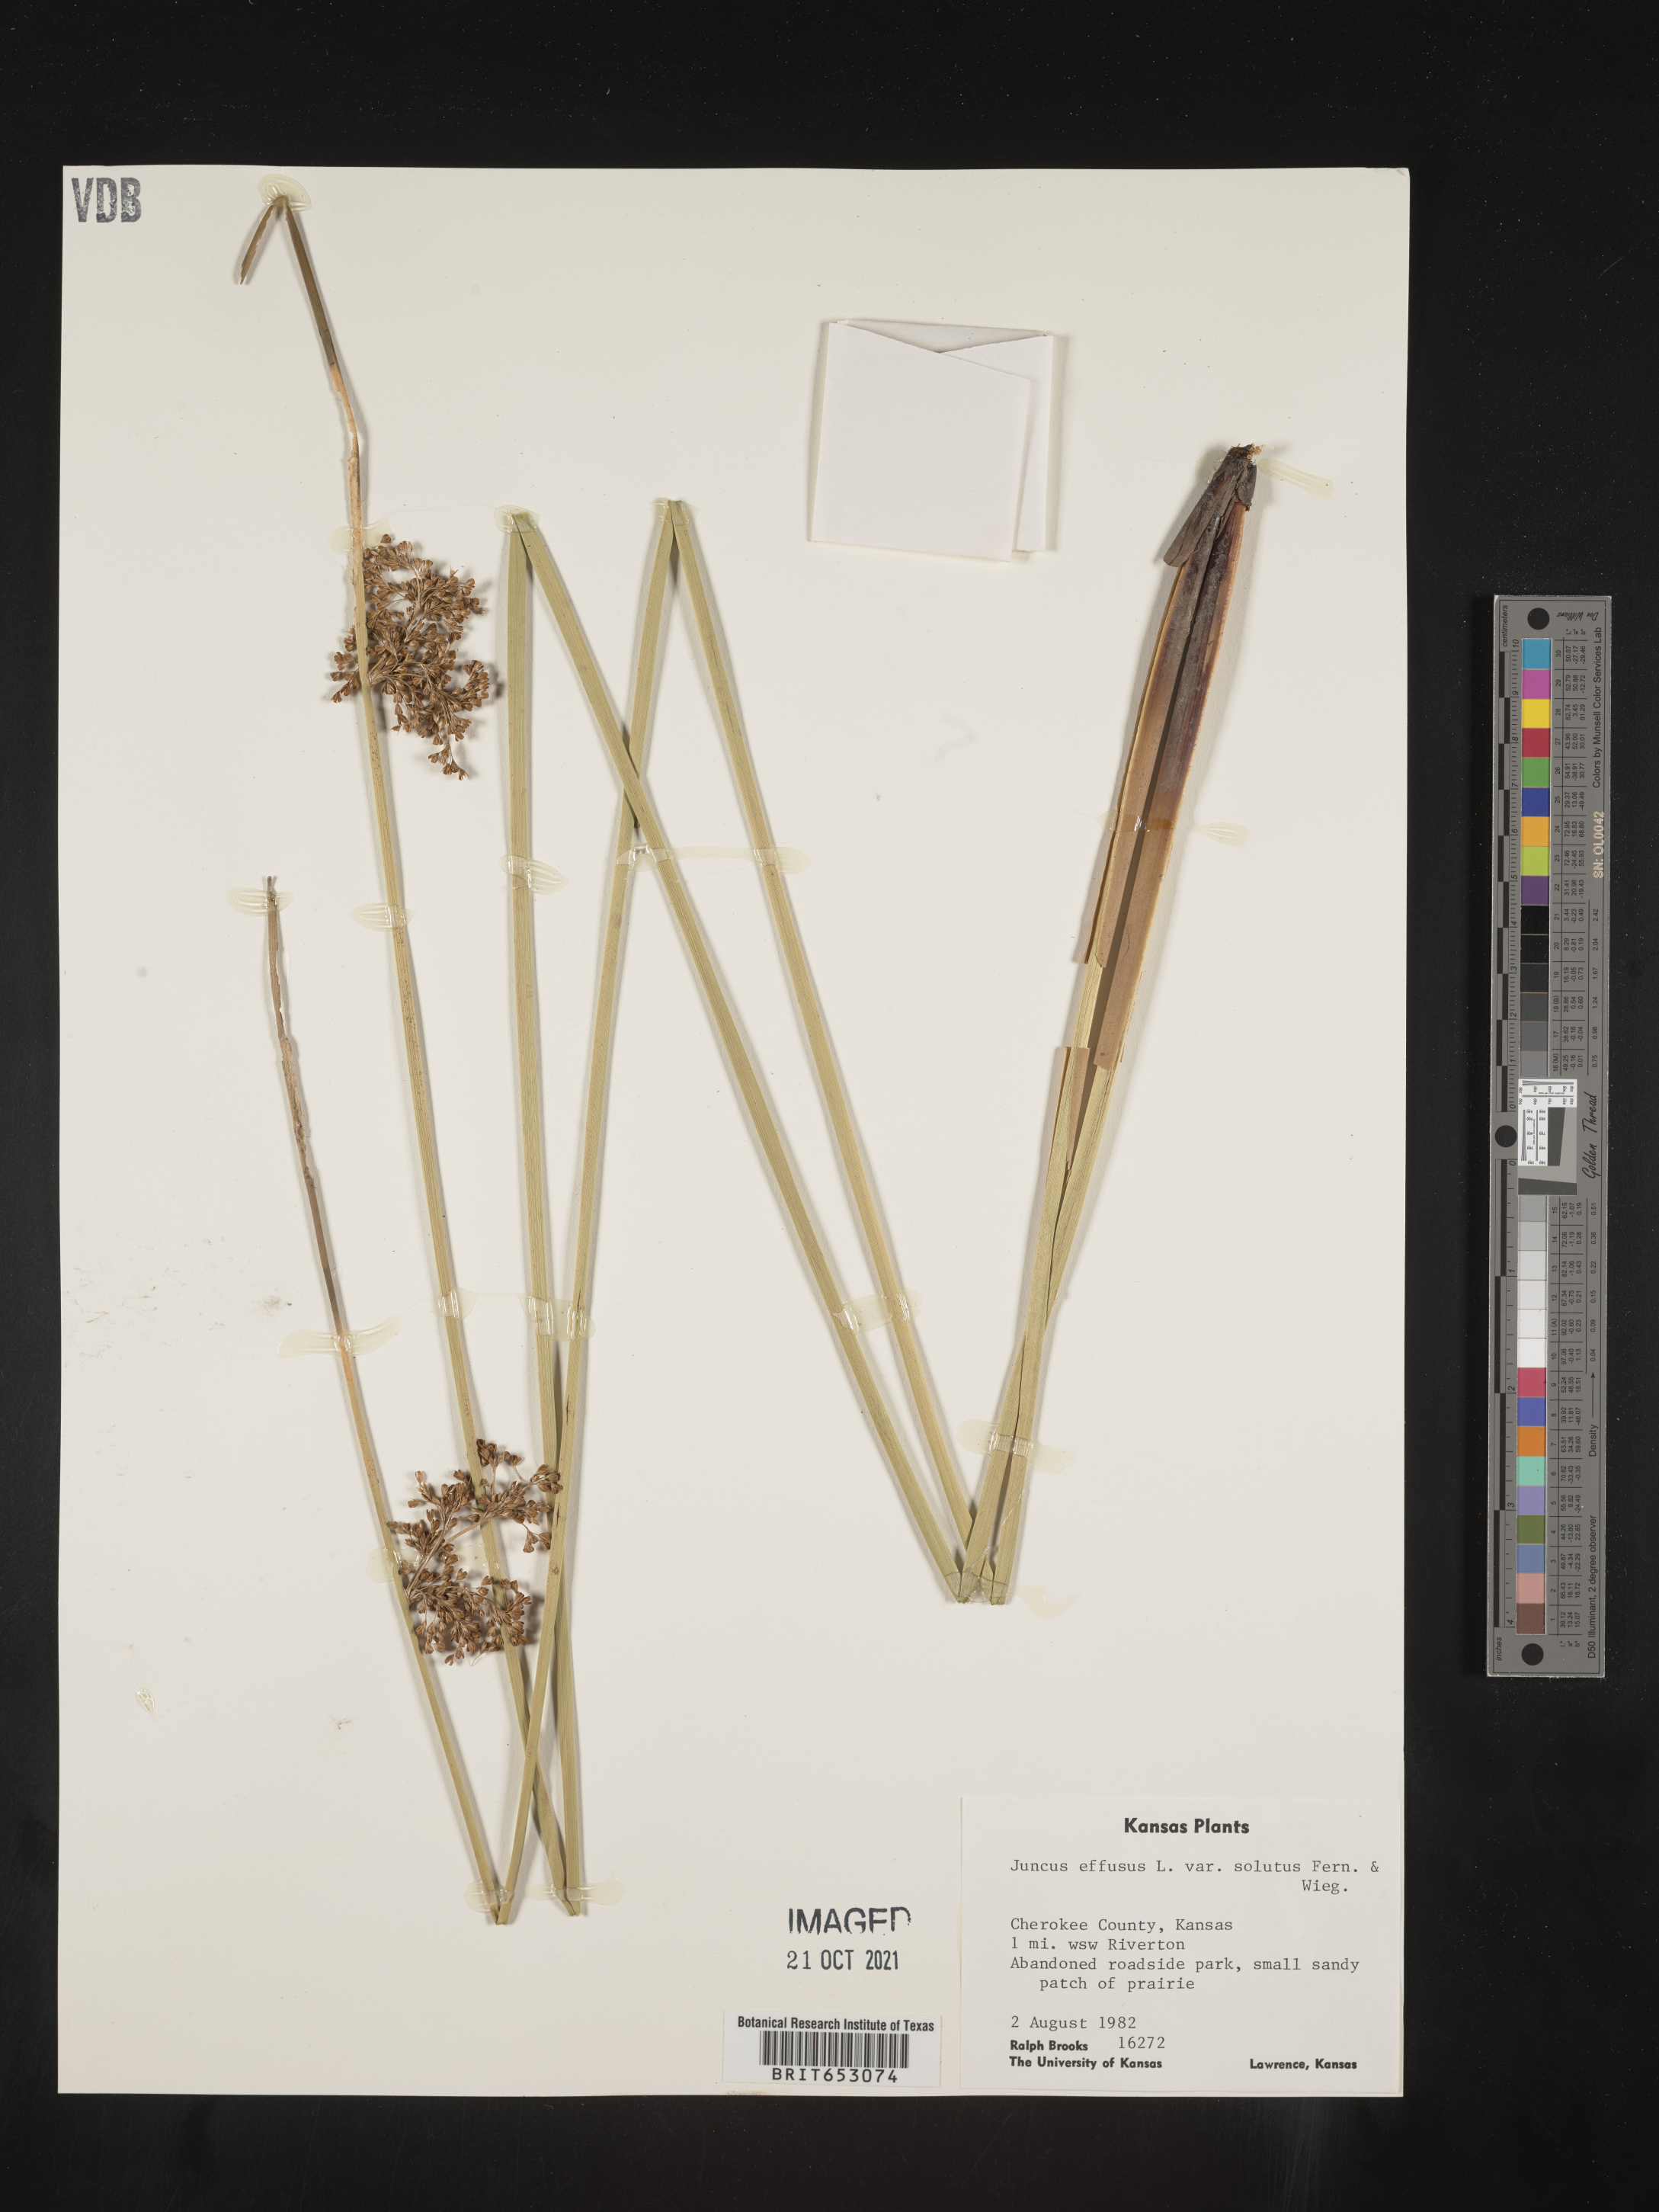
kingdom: Plantae
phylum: Tracheophyta
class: Liliopsida
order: Poales
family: Juncaceae
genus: Juncus
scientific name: Juncus effusus
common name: Soft rush
